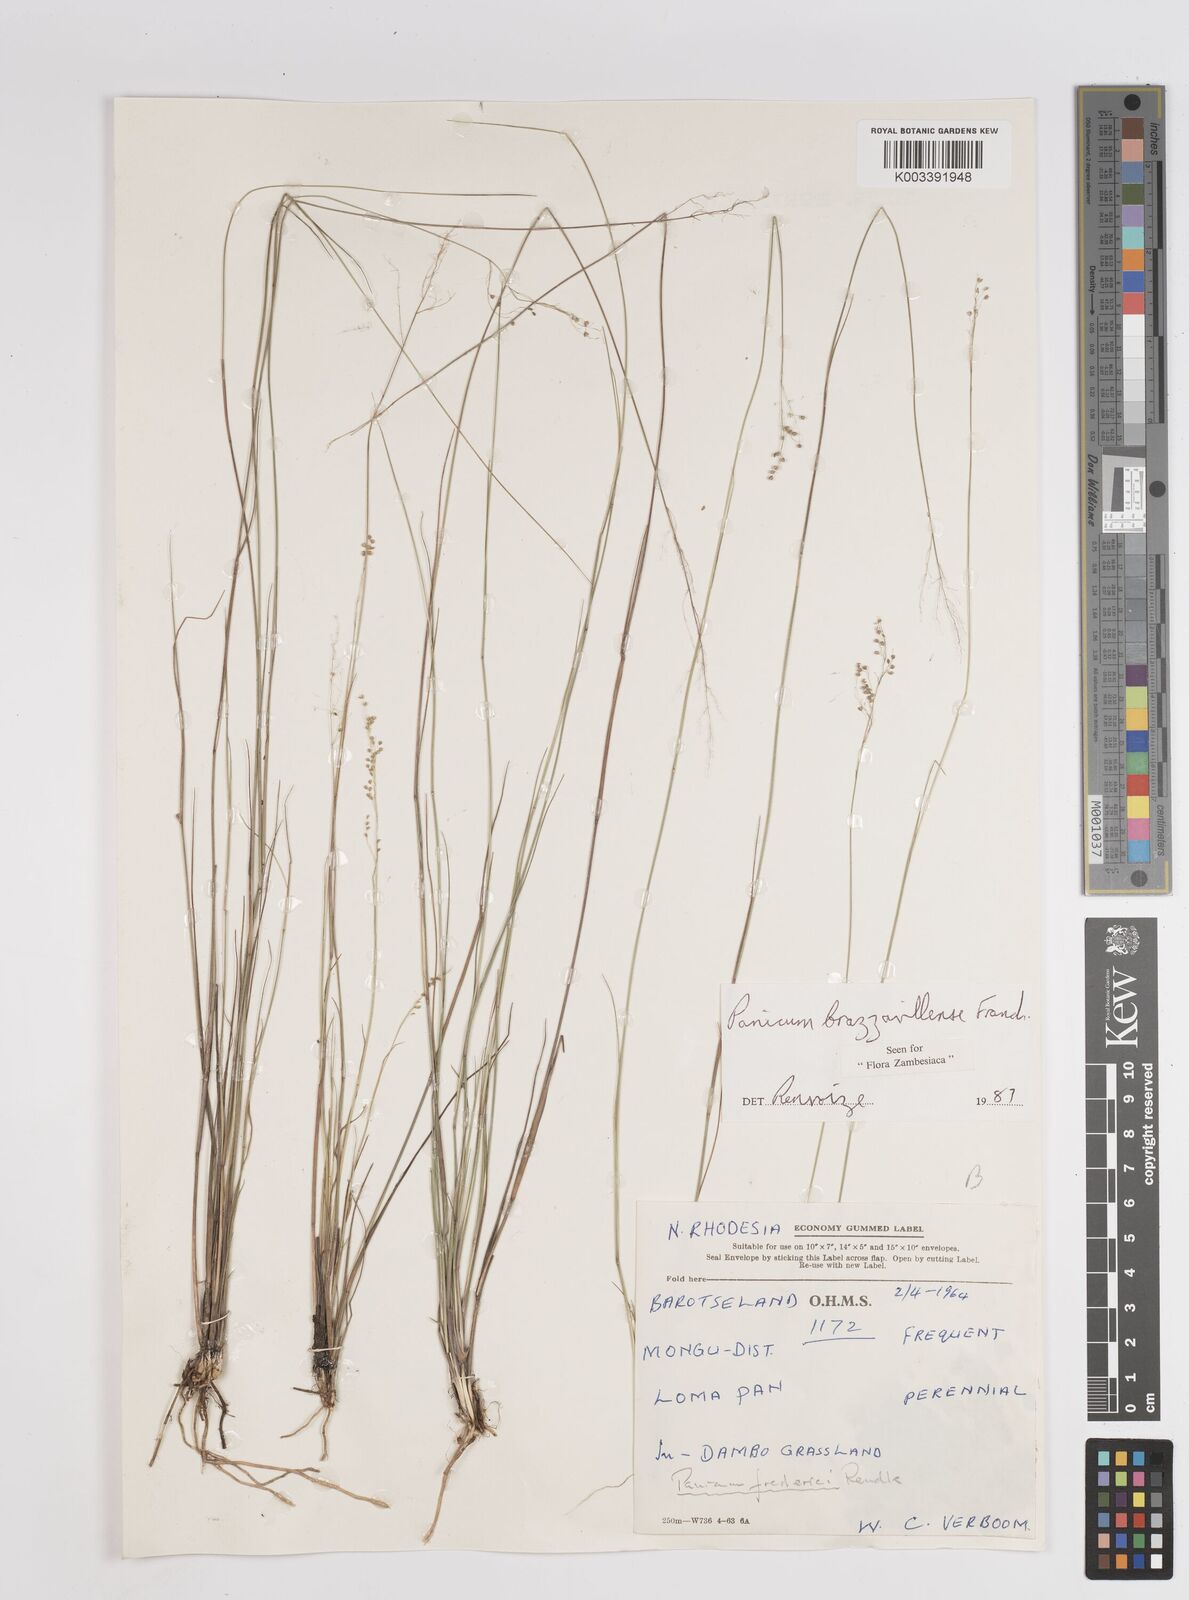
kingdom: Plantae
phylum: Tracheophyta
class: Liliopsida
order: Poales
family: Poaceae
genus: Trichanthecium
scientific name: Trichanthecium brazzavillense
